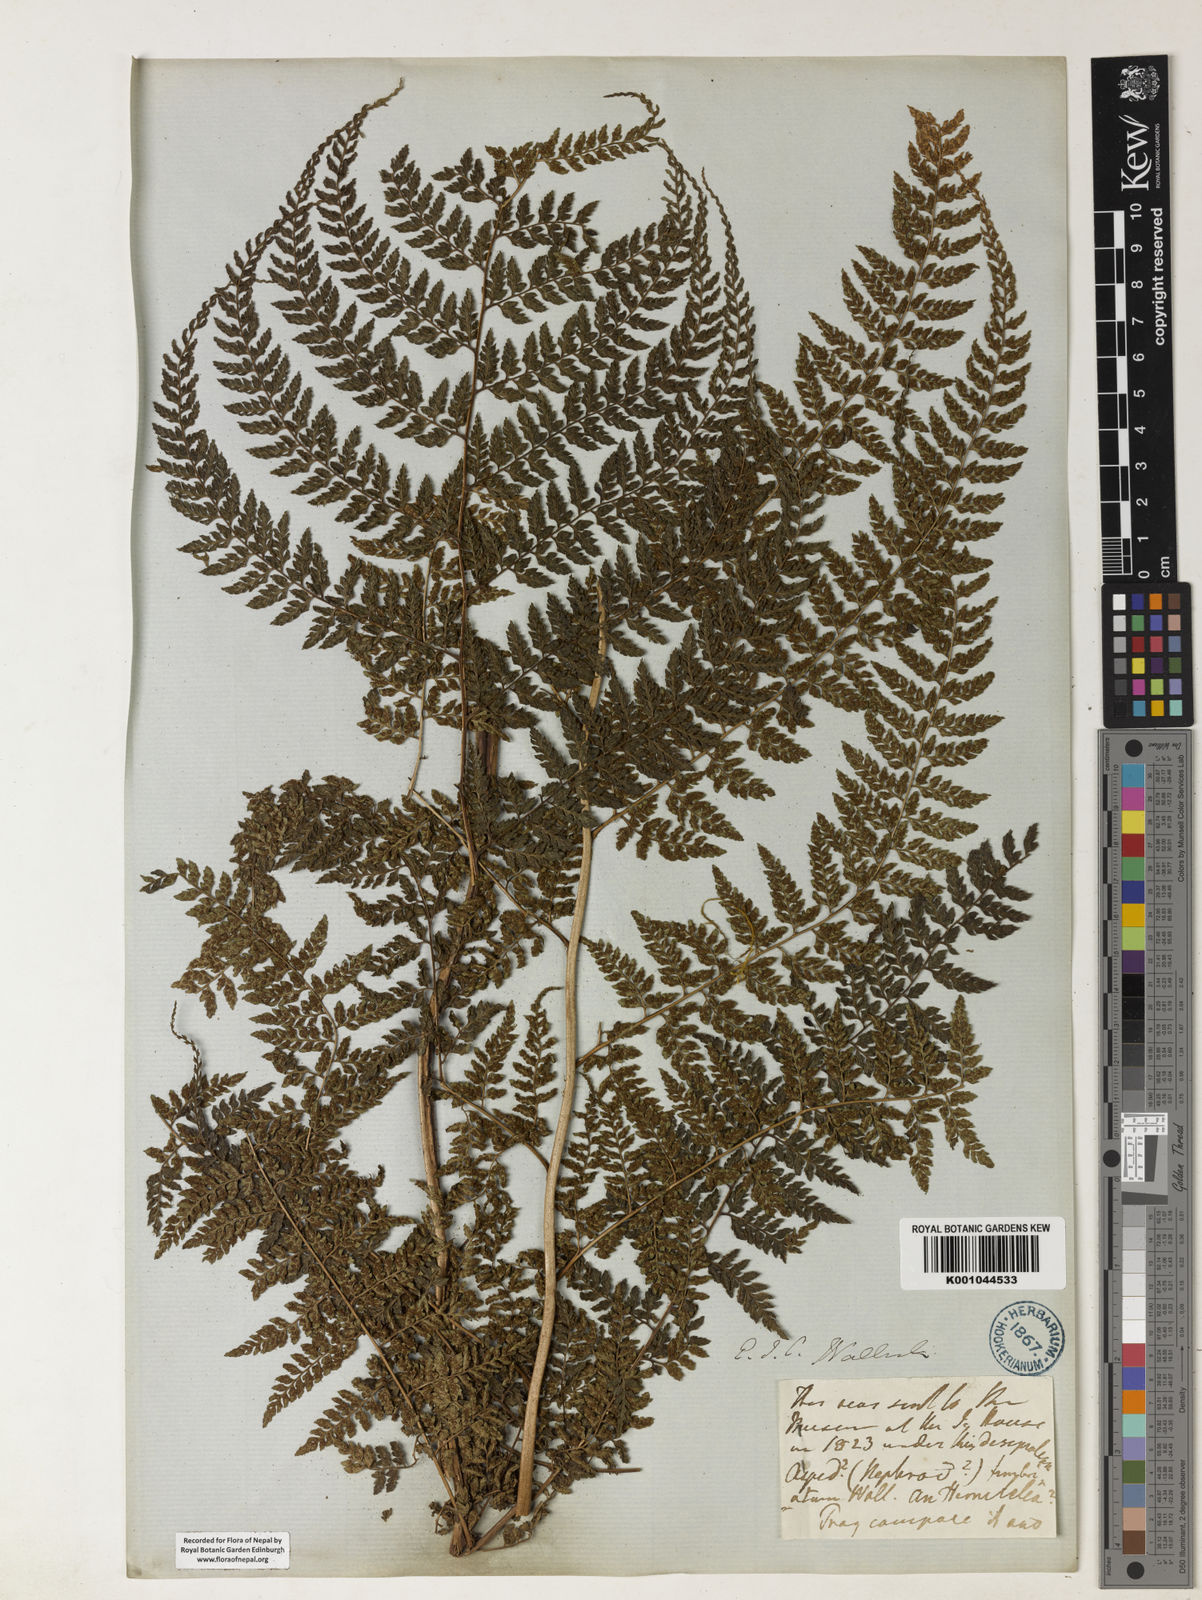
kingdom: Plantae
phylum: Tracheophyta
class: Polypodiopsida
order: Polypodiales
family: Athyriaceae
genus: Athyrium
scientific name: Athyrium fimbriatum
